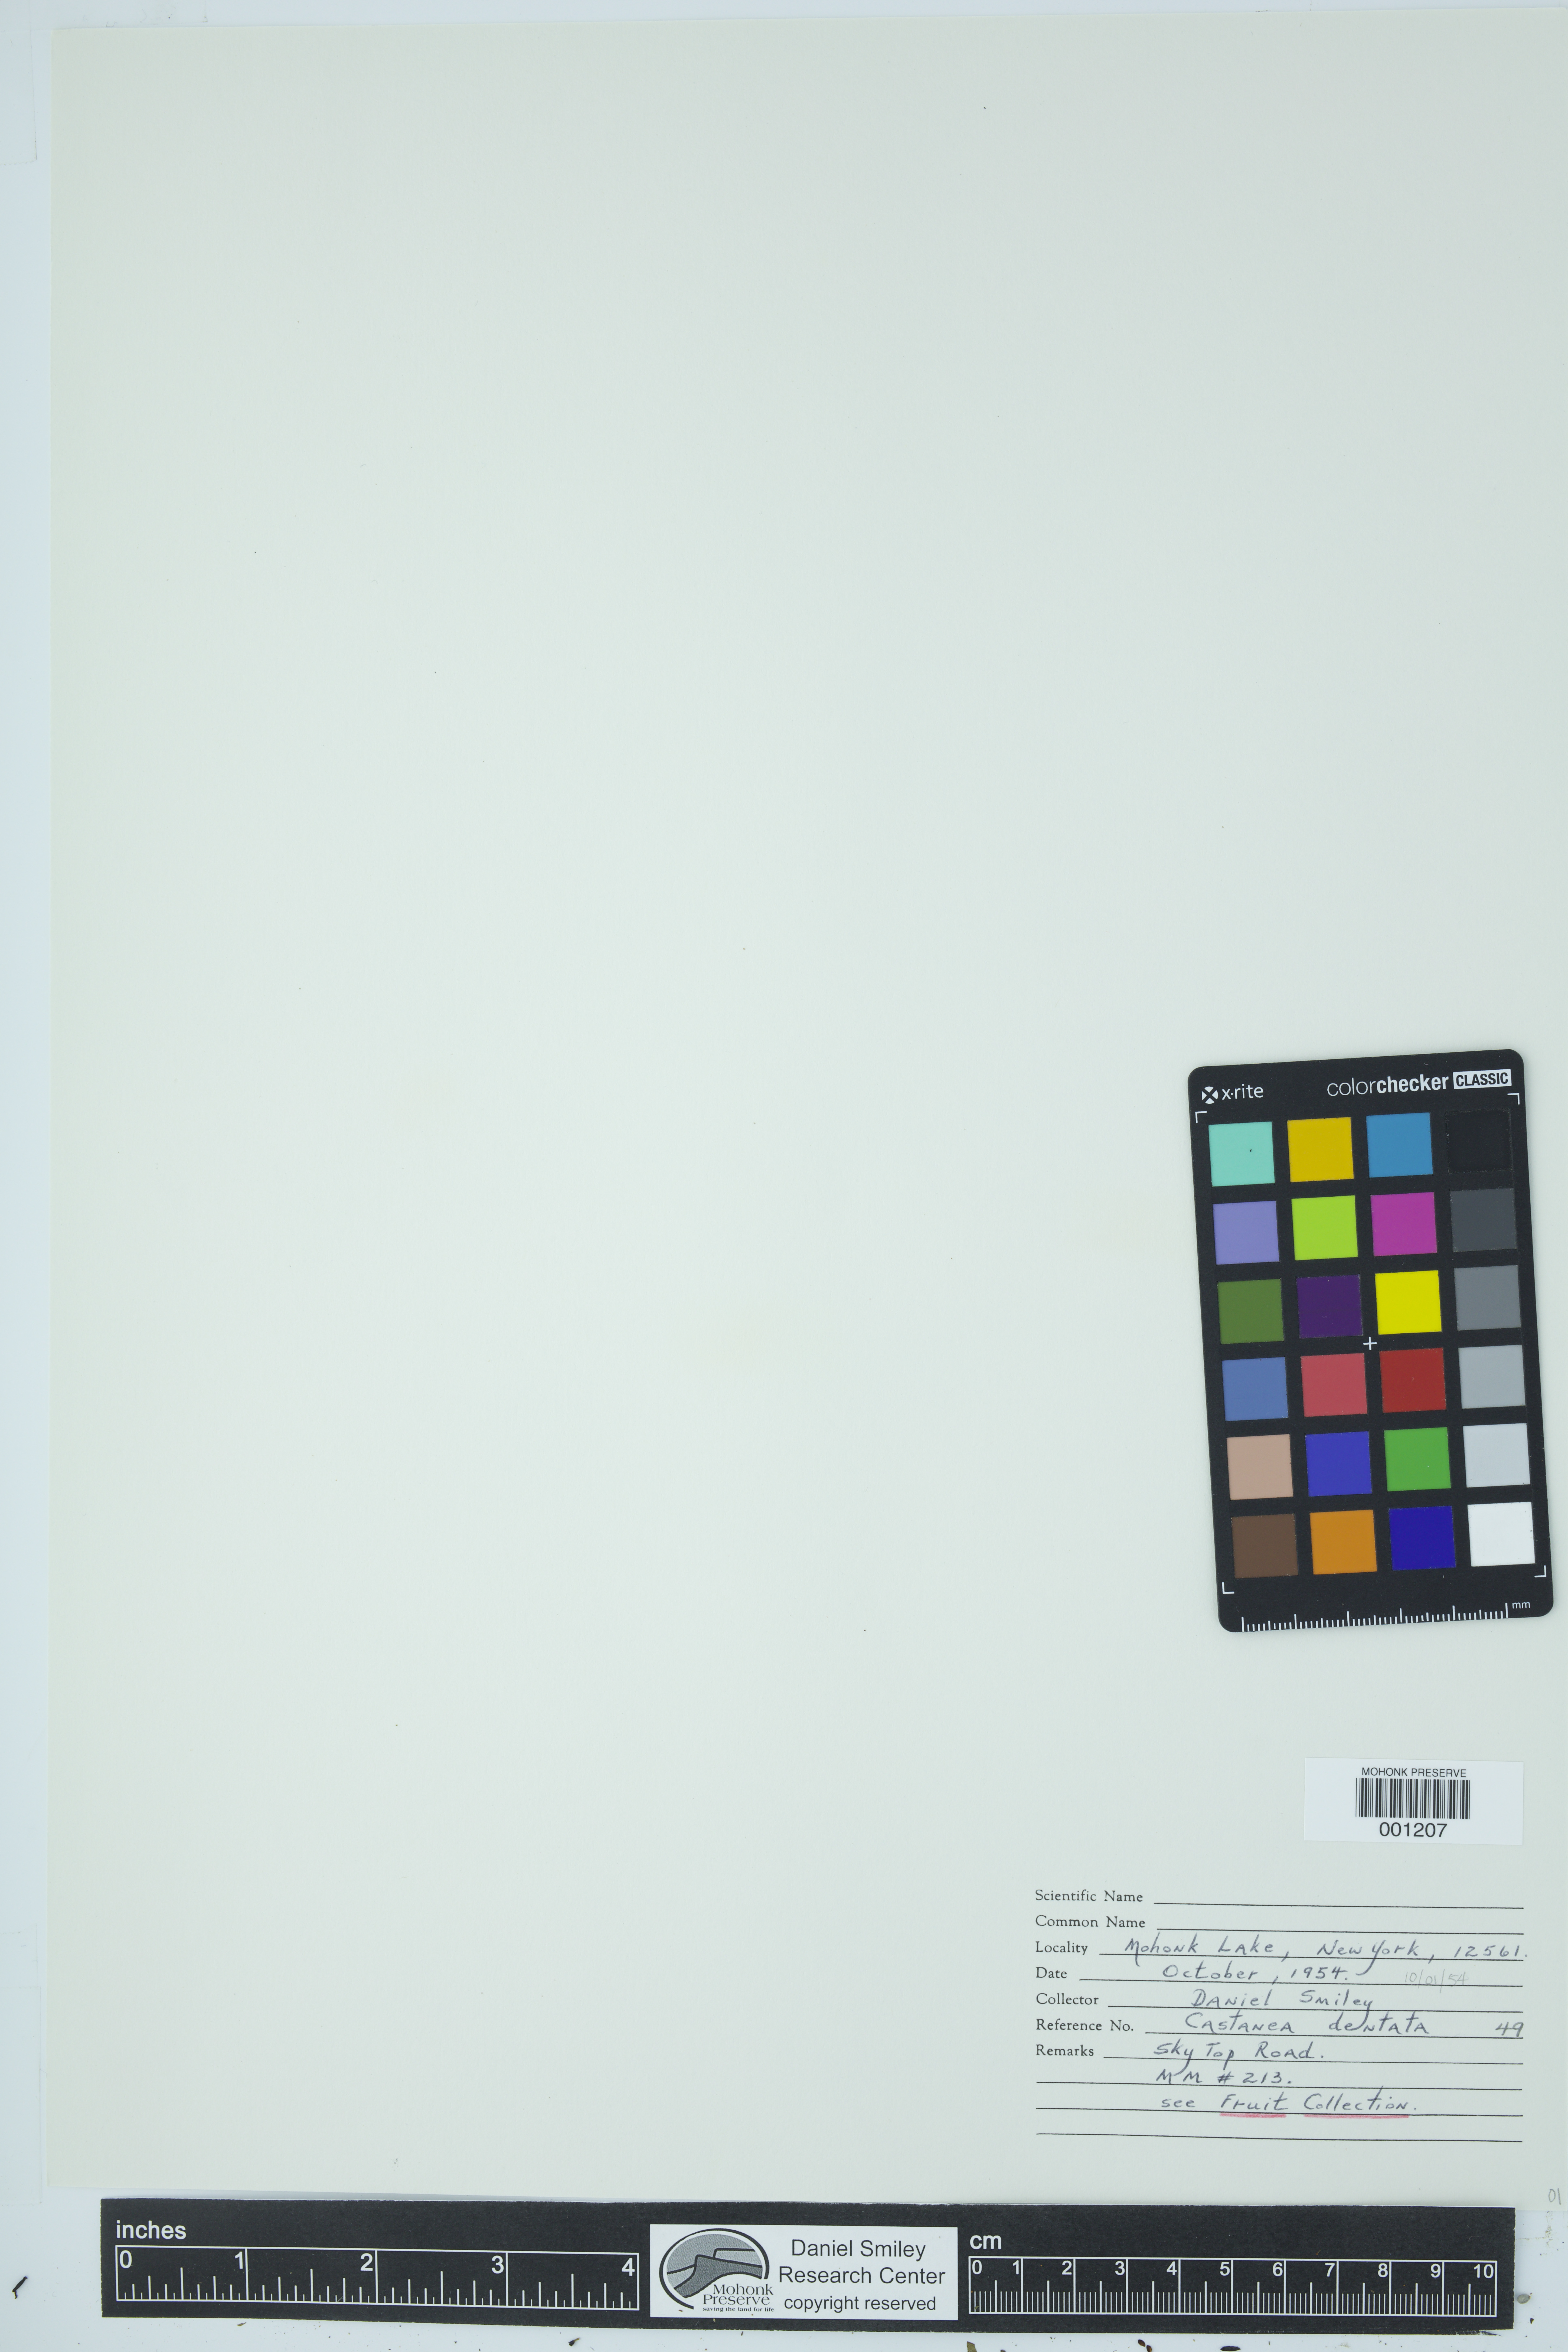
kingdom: Plantae
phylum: Tracheophyta
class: Magnoliopsida
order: Fagales
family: Fagaceae
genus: Castanea
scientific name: Castanea dentata
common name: American chestnut
